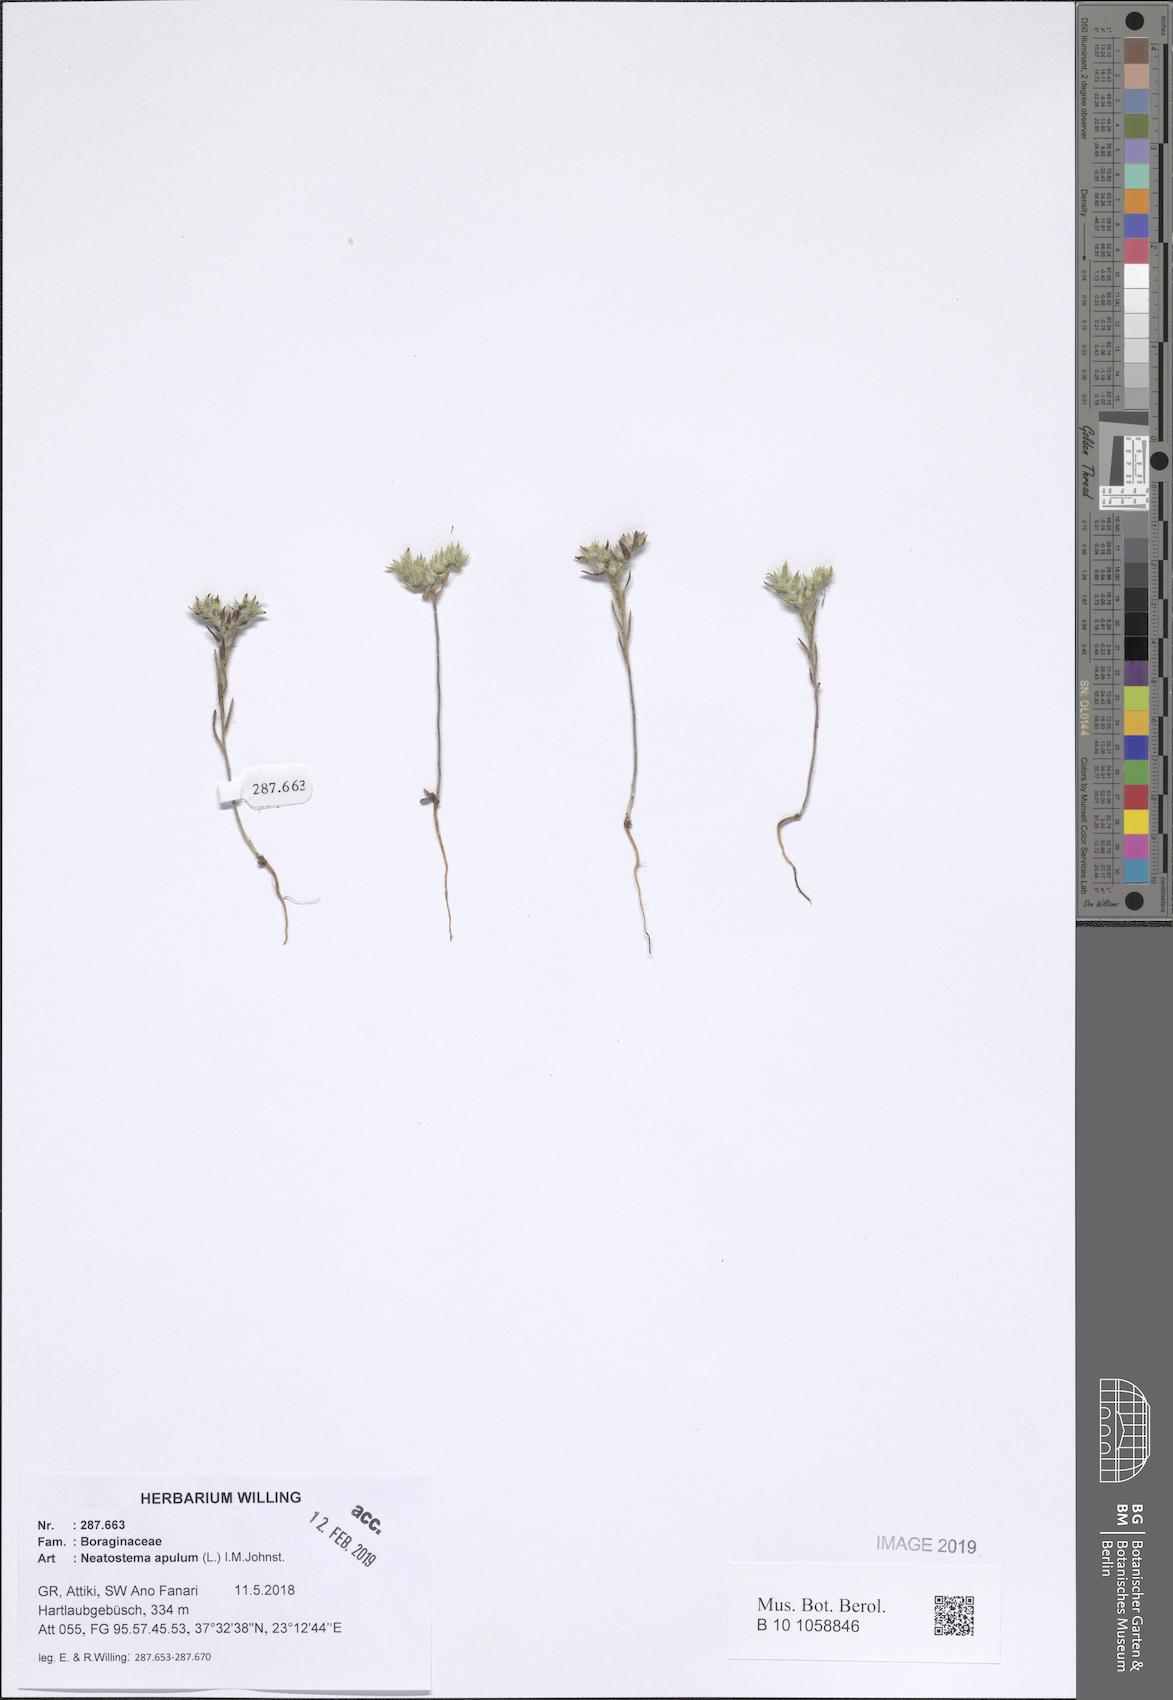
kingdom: Plantae
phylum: Tracheophyta
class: Magnoliopsida
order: Boraginales
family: Boraginaceae
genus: Neatostema
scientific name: Neatostema apulum
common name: Hairy sheepweed
